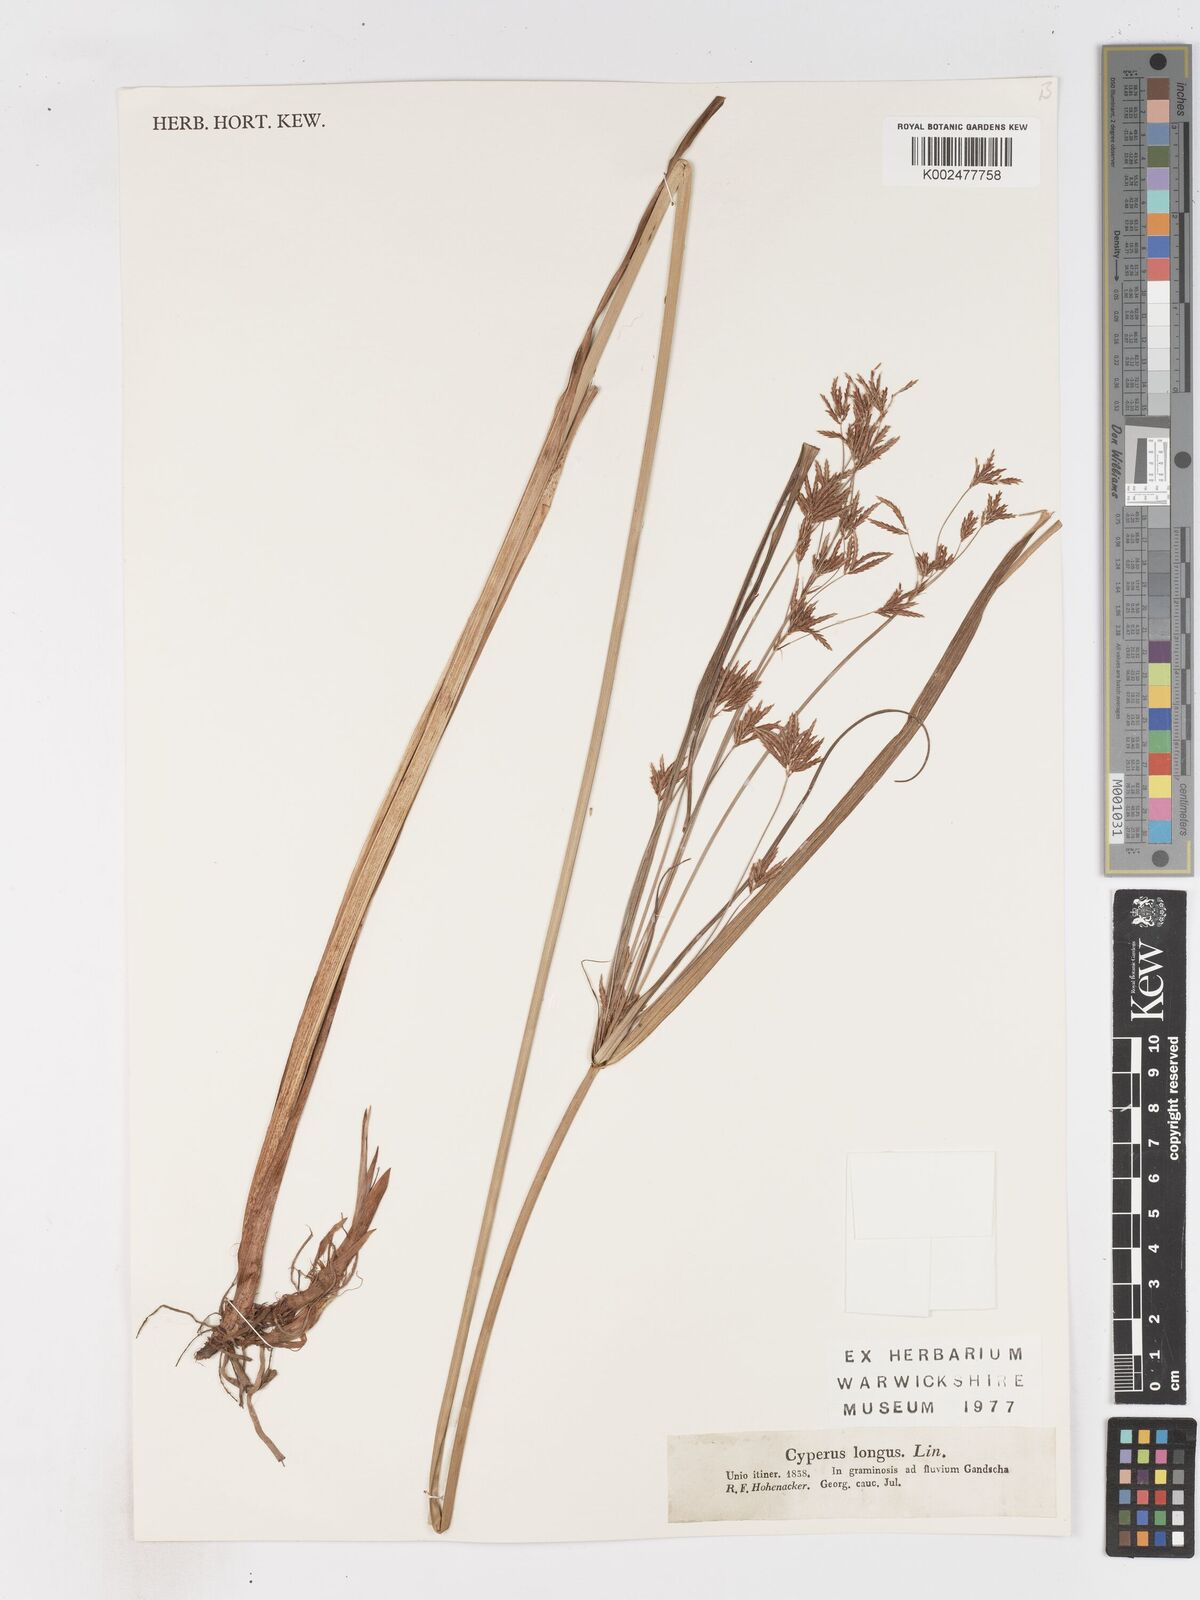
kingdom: Plantae
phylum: Tracheophyta
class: Liliopsida
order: Poales
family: Cyperaceae
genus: Cyperus
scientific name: Cyperus longus
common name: Galingale
